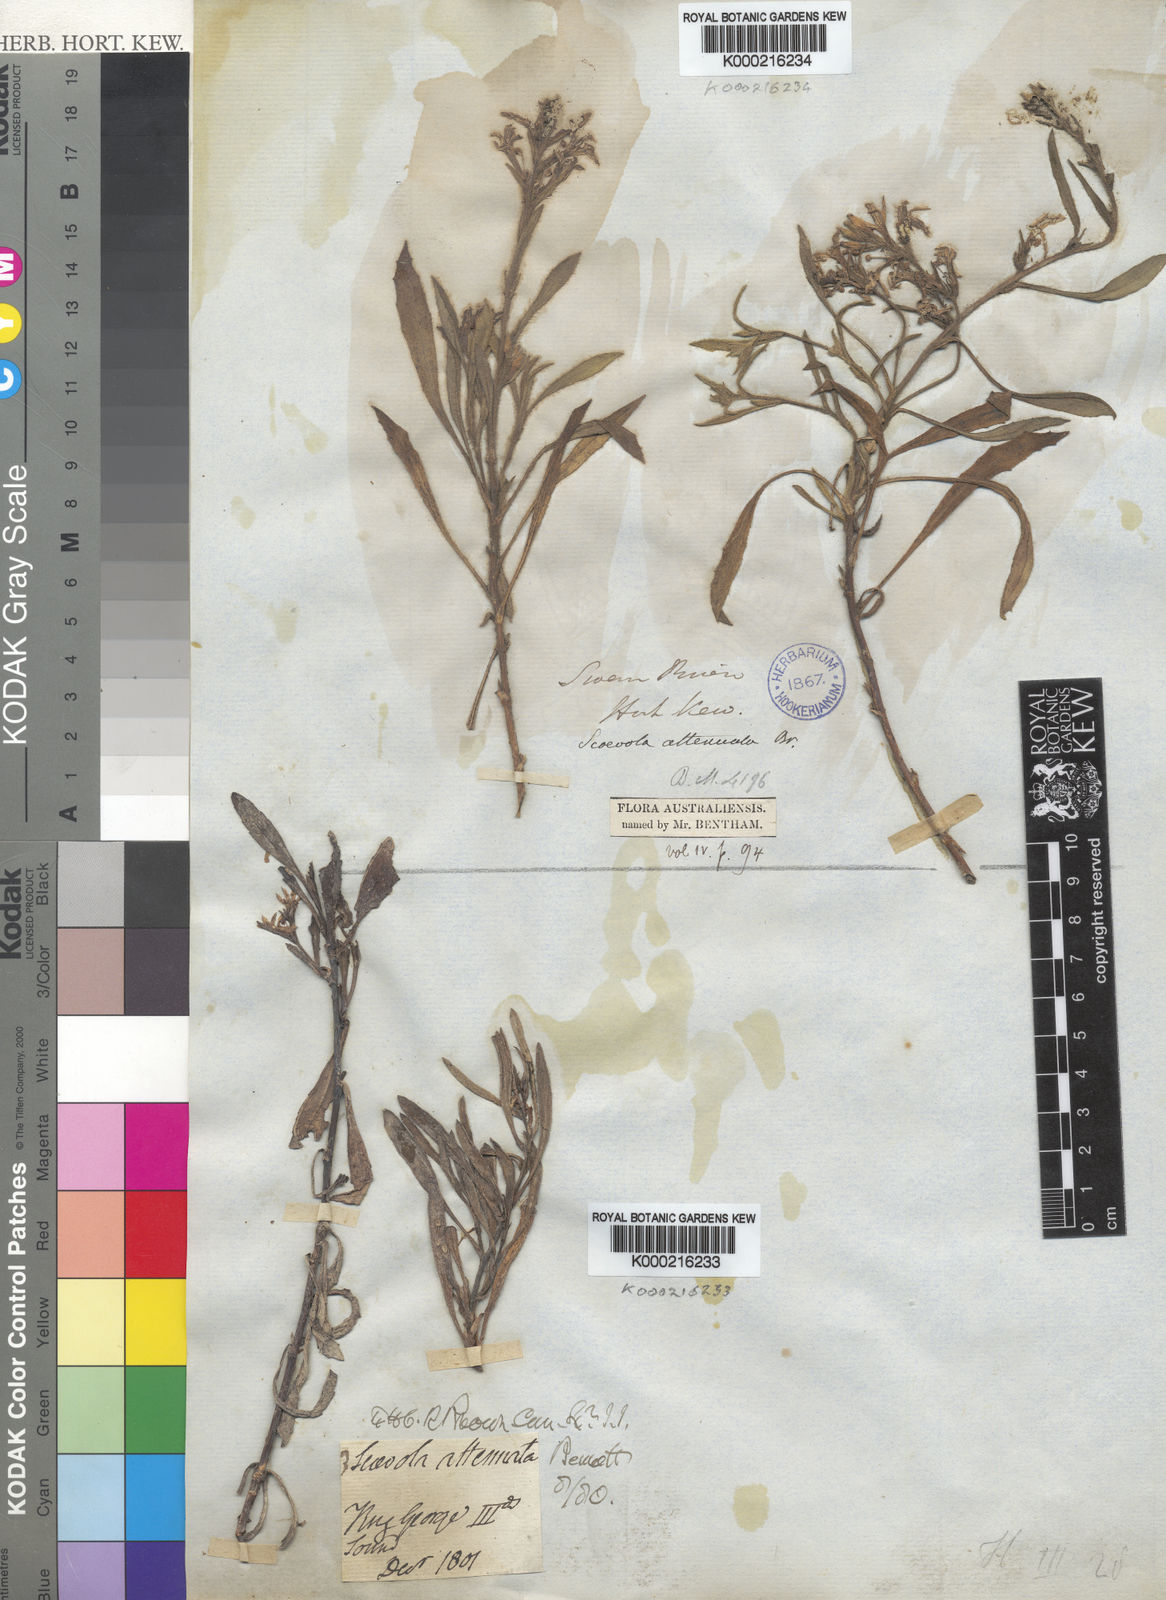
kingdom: Plantae
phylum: Tracheophyta
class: Magnoliopsida
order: Asterales
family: Goodeniaceae
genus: Scaevola
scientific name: Scaevola nitida
